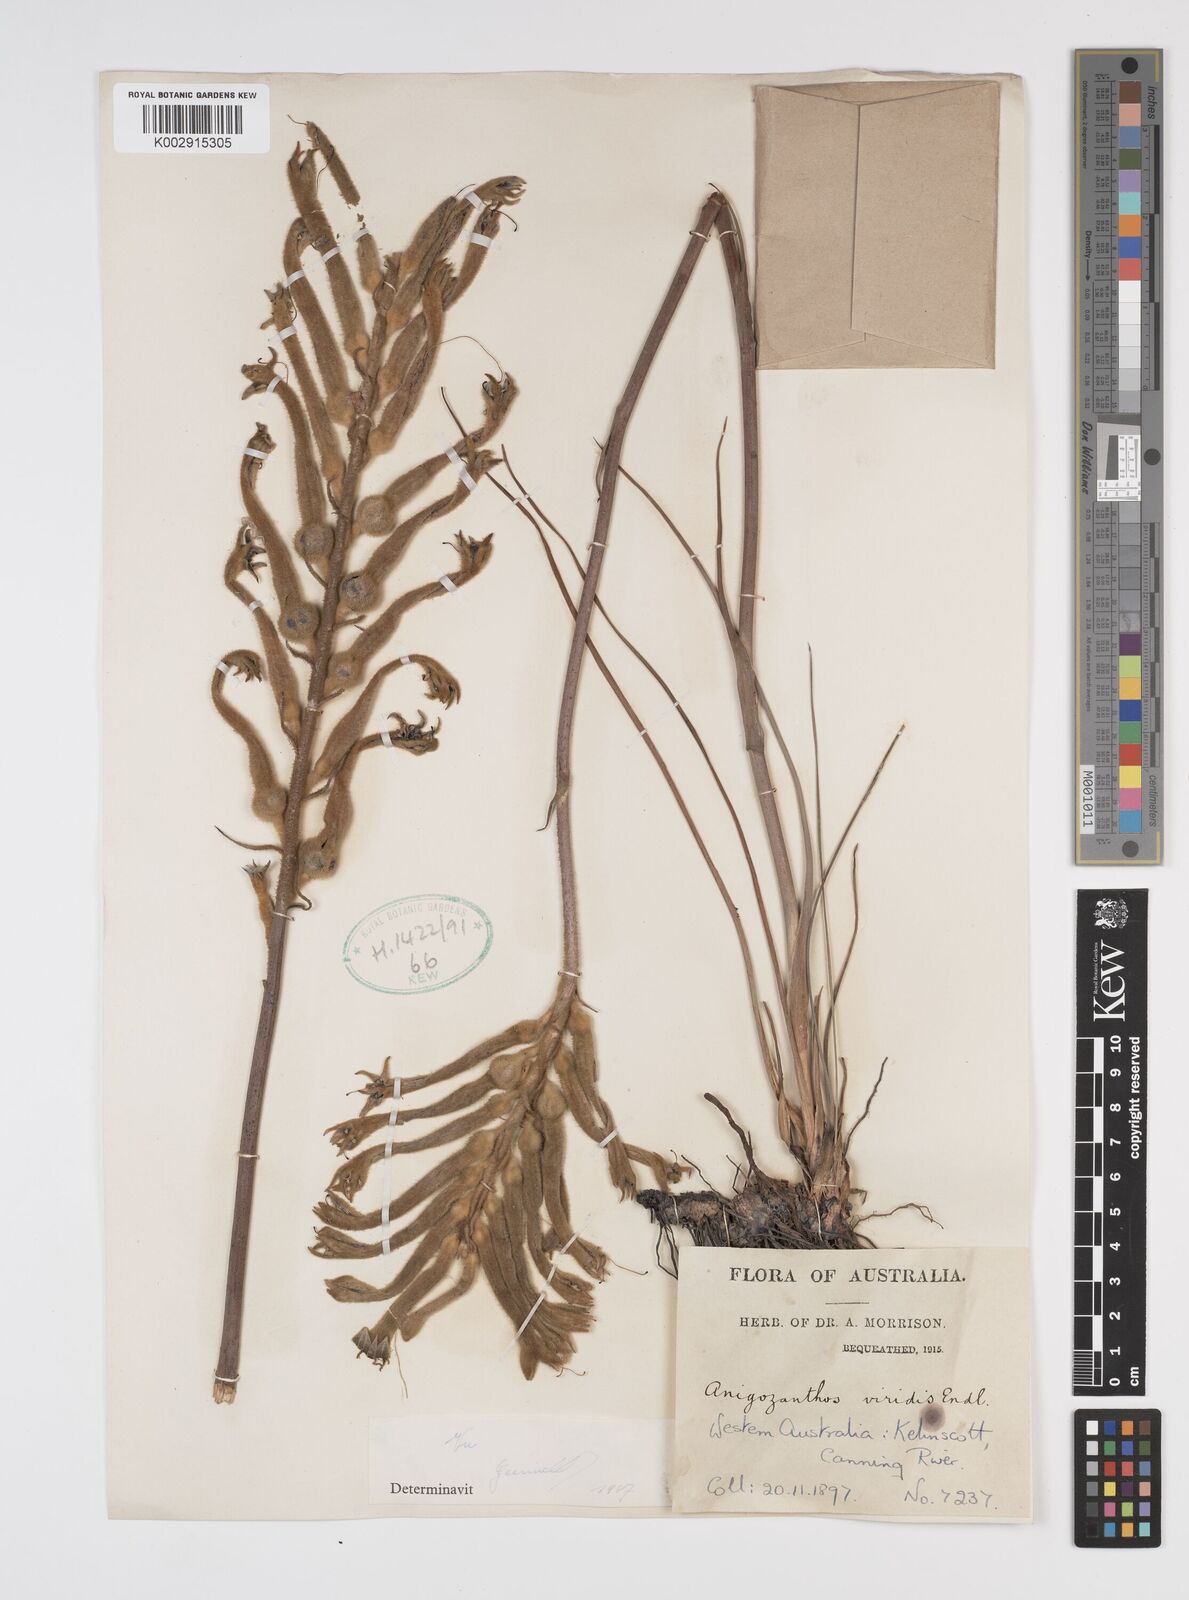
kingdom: Plantae
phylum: Tracheophyta
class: Liliopsida
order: Commelinales
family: Haemodoraceae
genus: Anigozanthos
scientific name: Anigozanthos viridis
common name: Green kangaroo-paw
